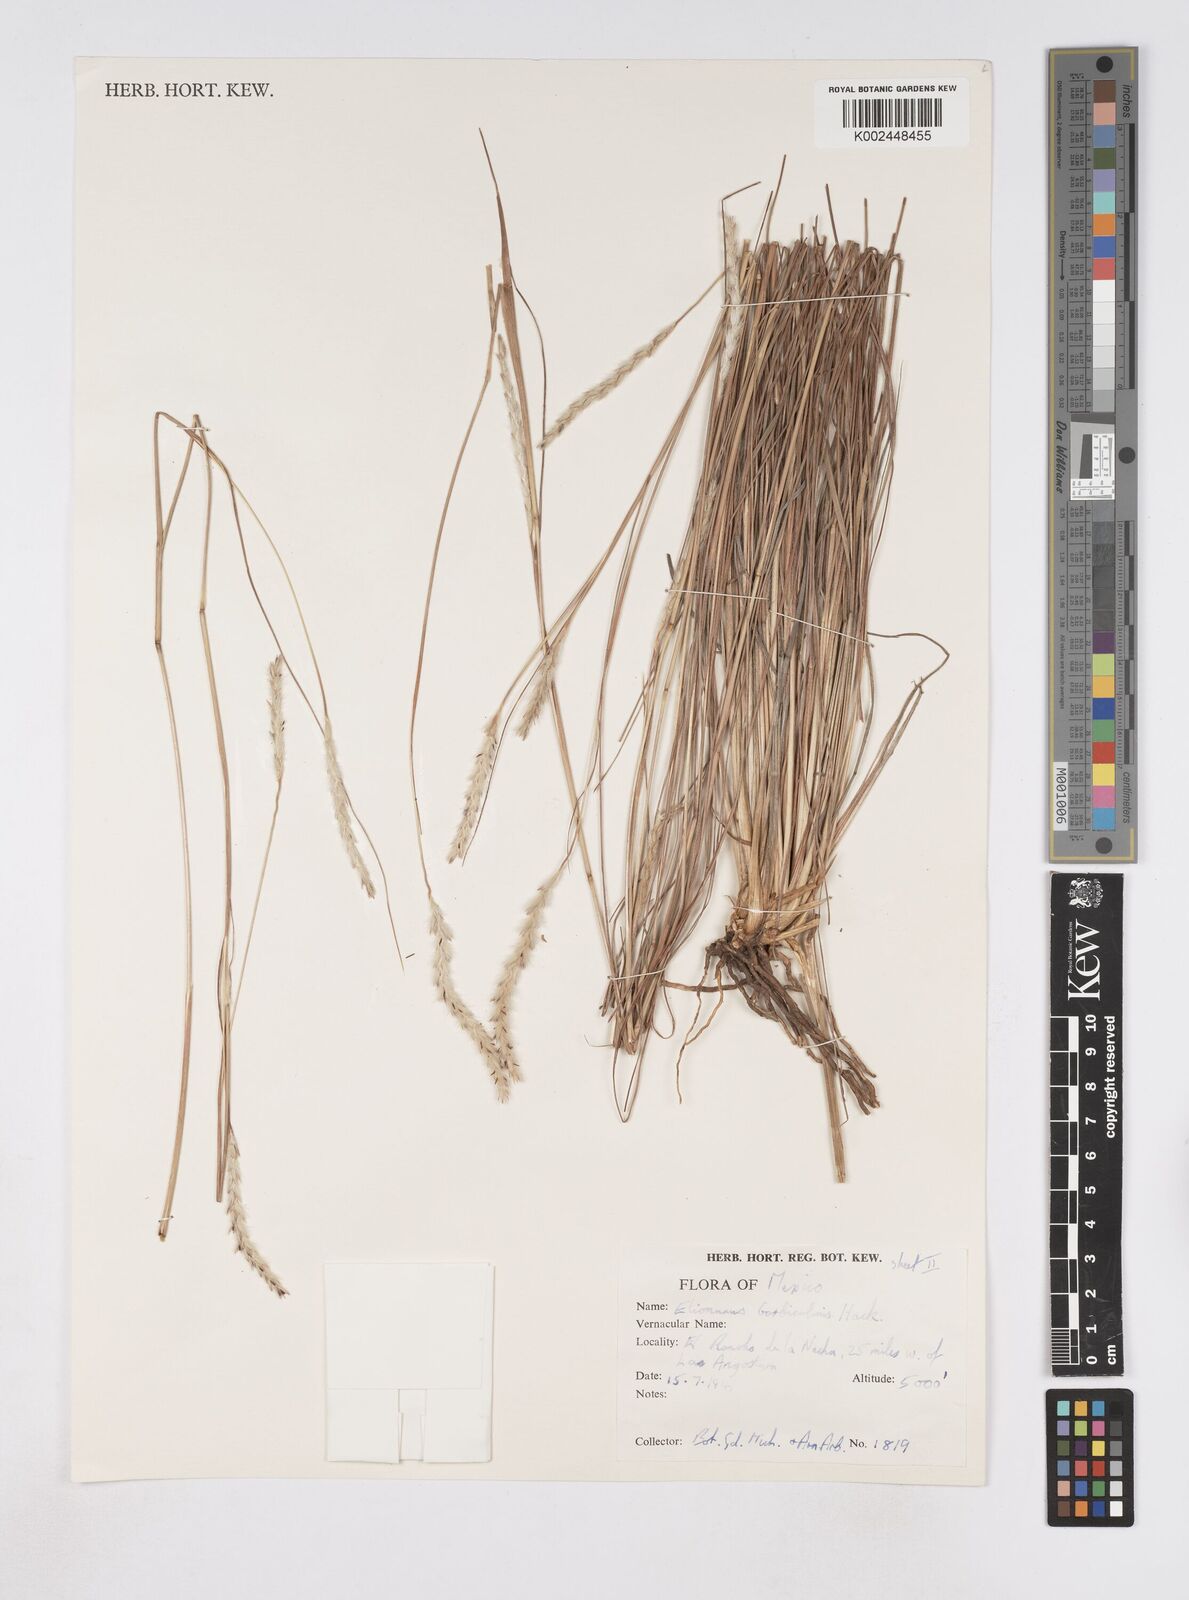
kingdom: Plantae
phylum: Tracheophyta
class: Liliopsida
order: Poales
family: Poaceae
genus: Elionurus
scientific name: Elionurus barbiculmis
